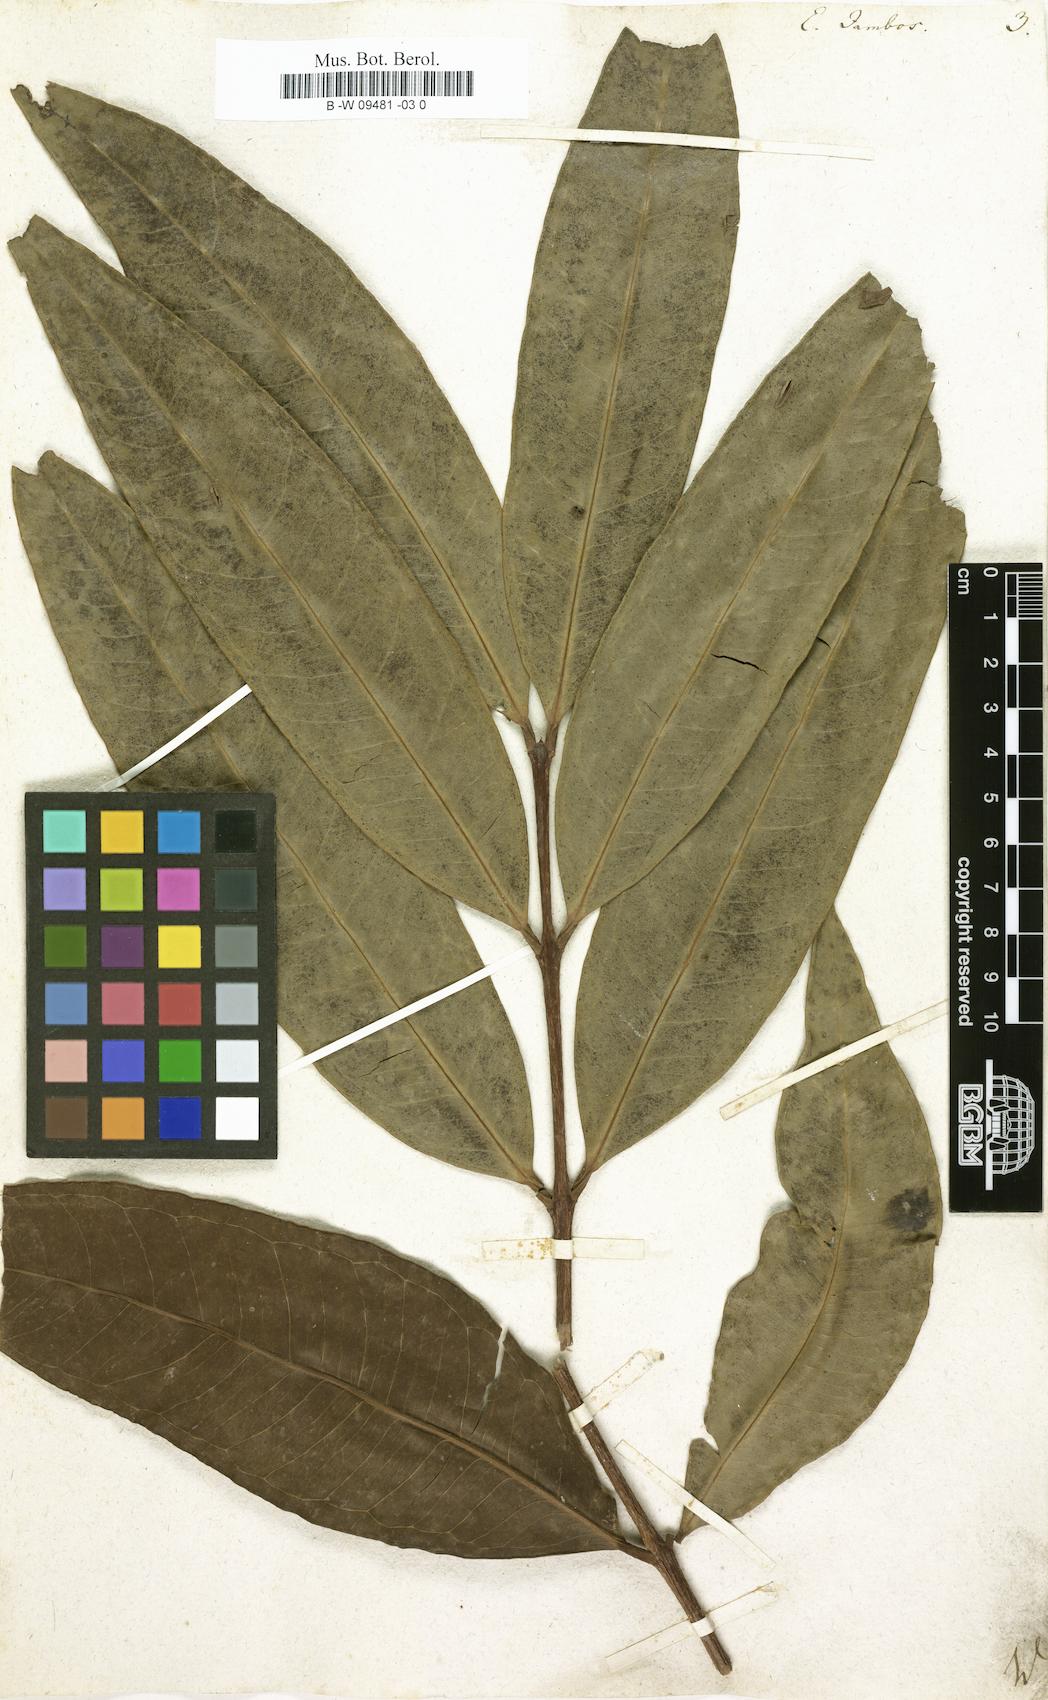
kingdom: Plantae
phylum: Tracheophyta
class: Magnoliopsida
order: Myrtales
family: Myrtaceae
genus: Syzygium
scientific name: Syzygium jambos
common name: Malabar plum
